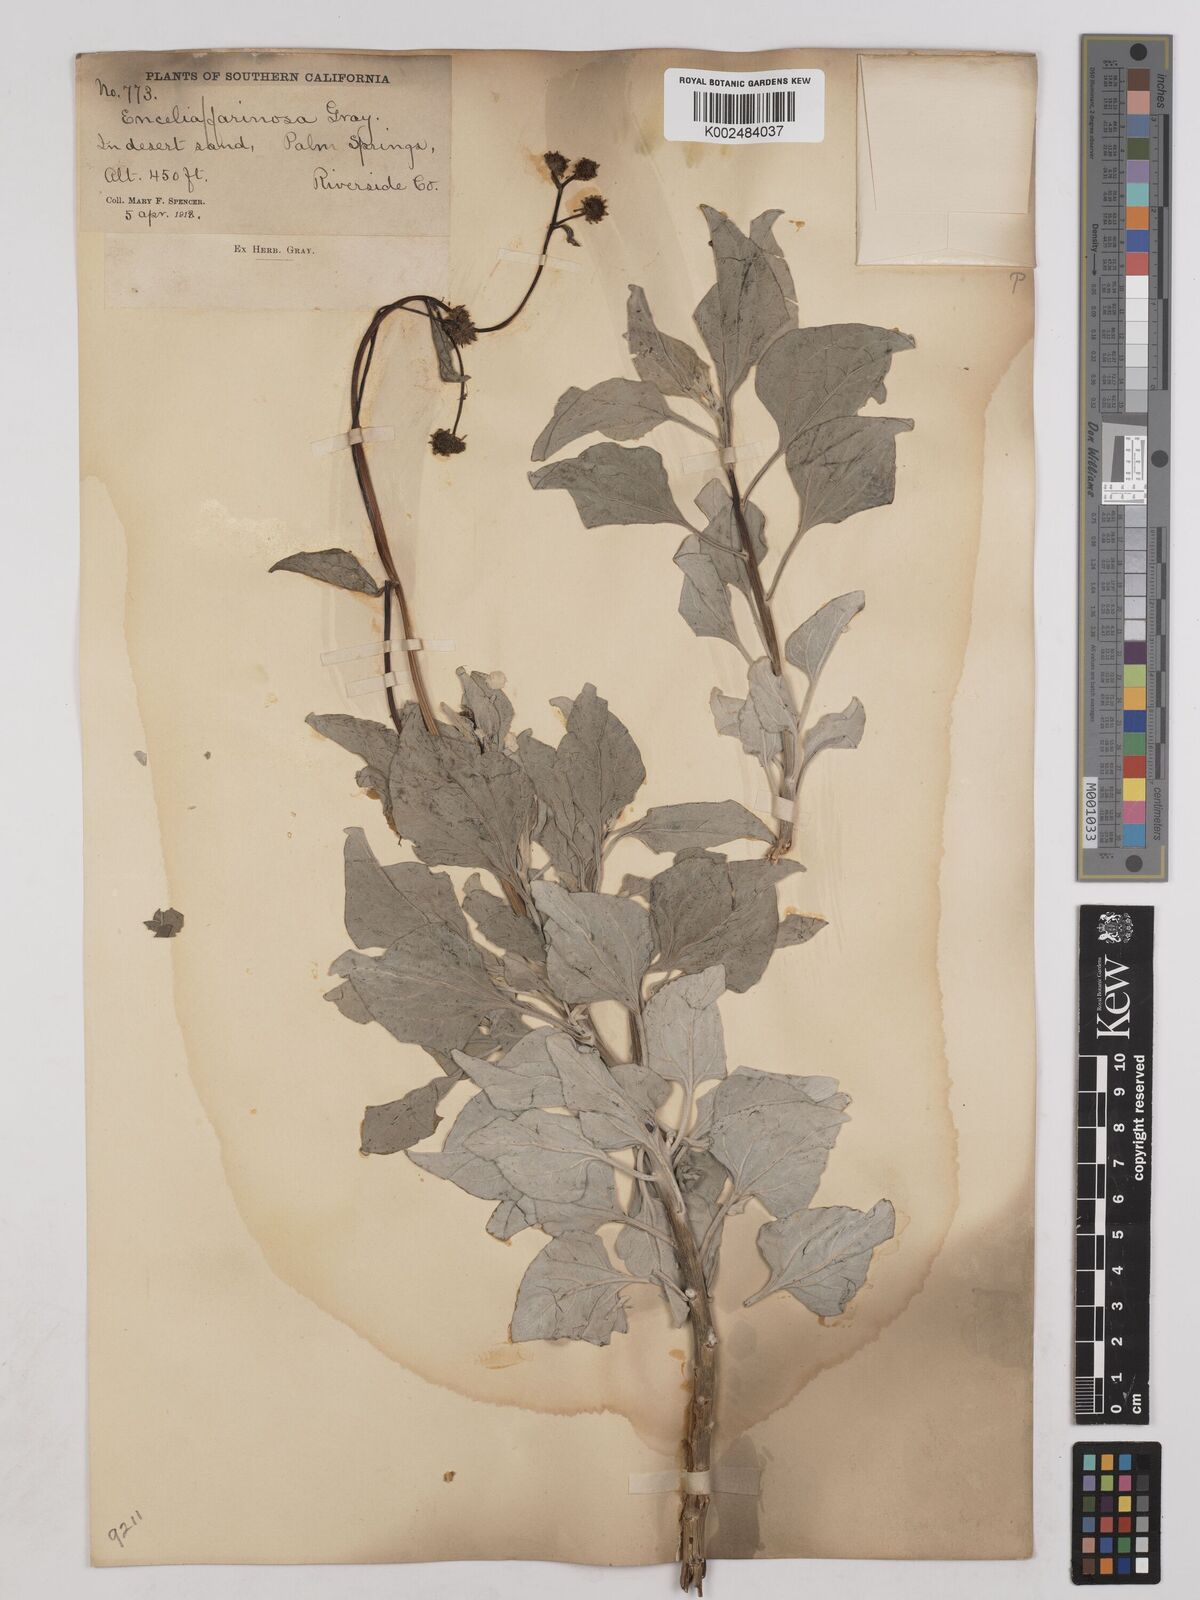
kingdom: Plantae
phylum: Tracheophyta
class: Magnoliopsida
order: Asterales
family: Asteraceae
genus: Encelia
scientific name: Encelia farinosa
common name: Brittlebush
